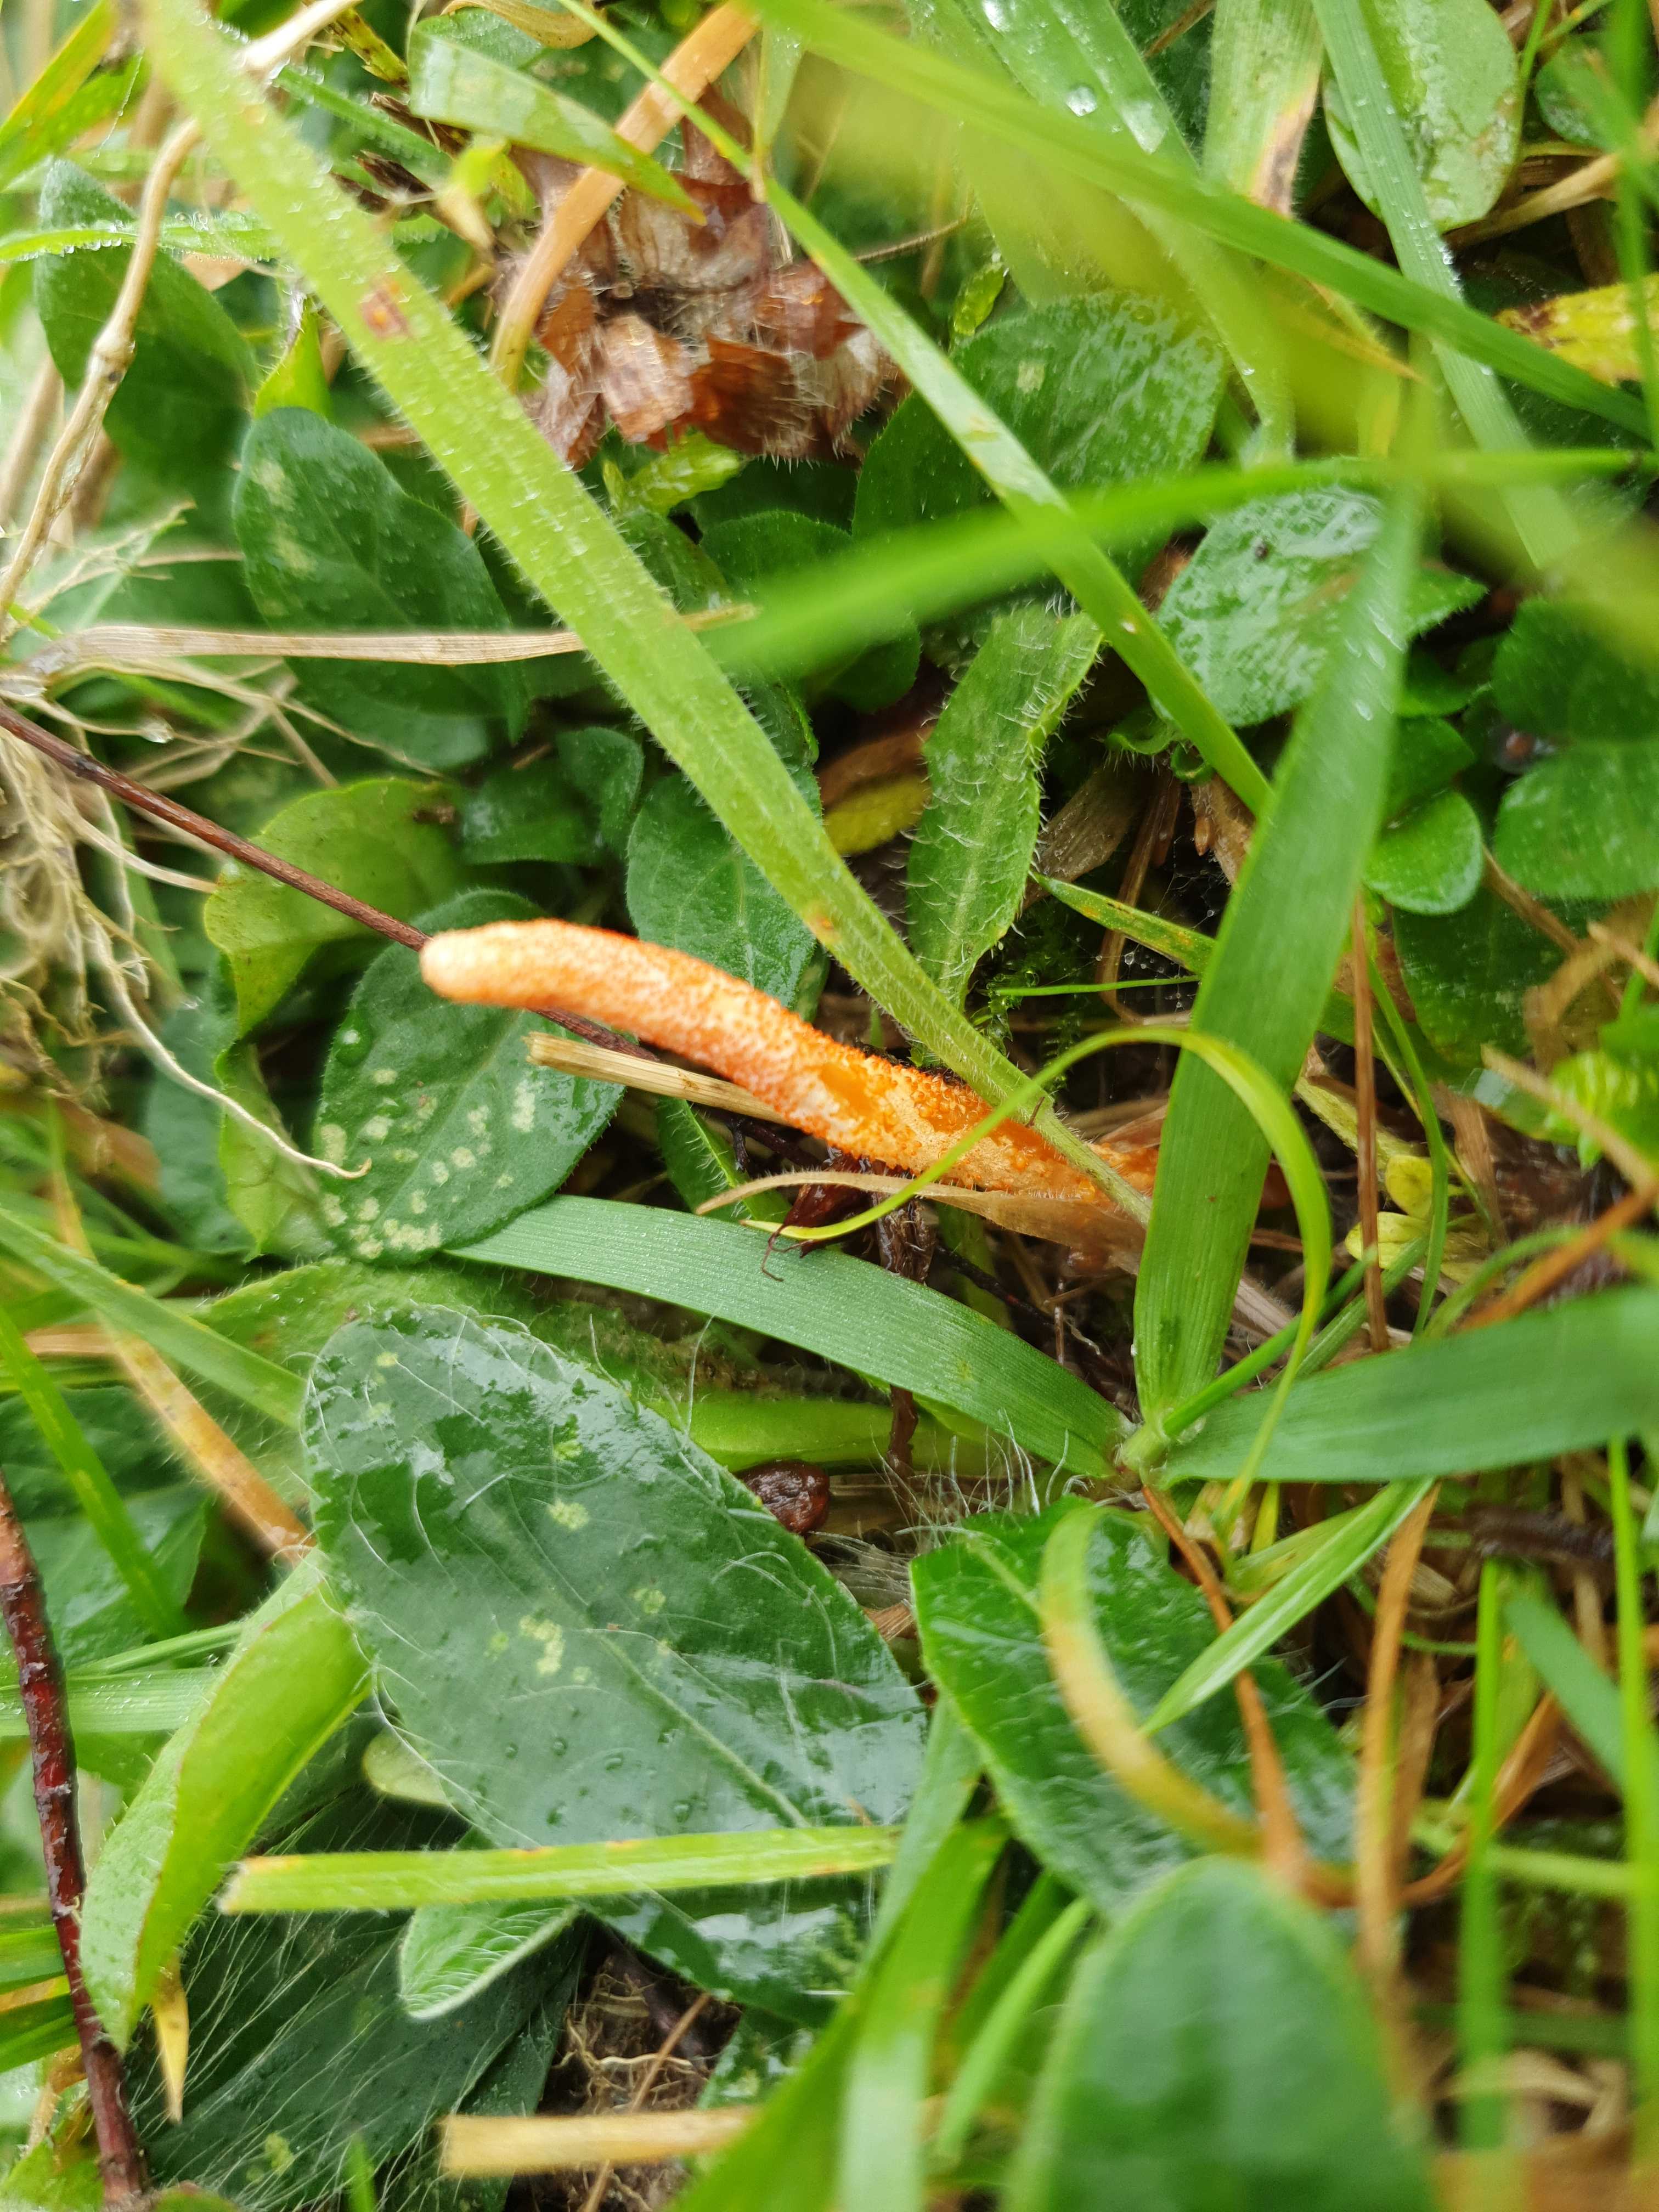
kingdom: Fungi
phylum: Ascomycota
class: Sordariomycetes
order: Hypocreales
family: Cordycipitaceae
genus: Cordyceps
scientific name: Cordyceps militaris
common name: puppe-snyltekølle
